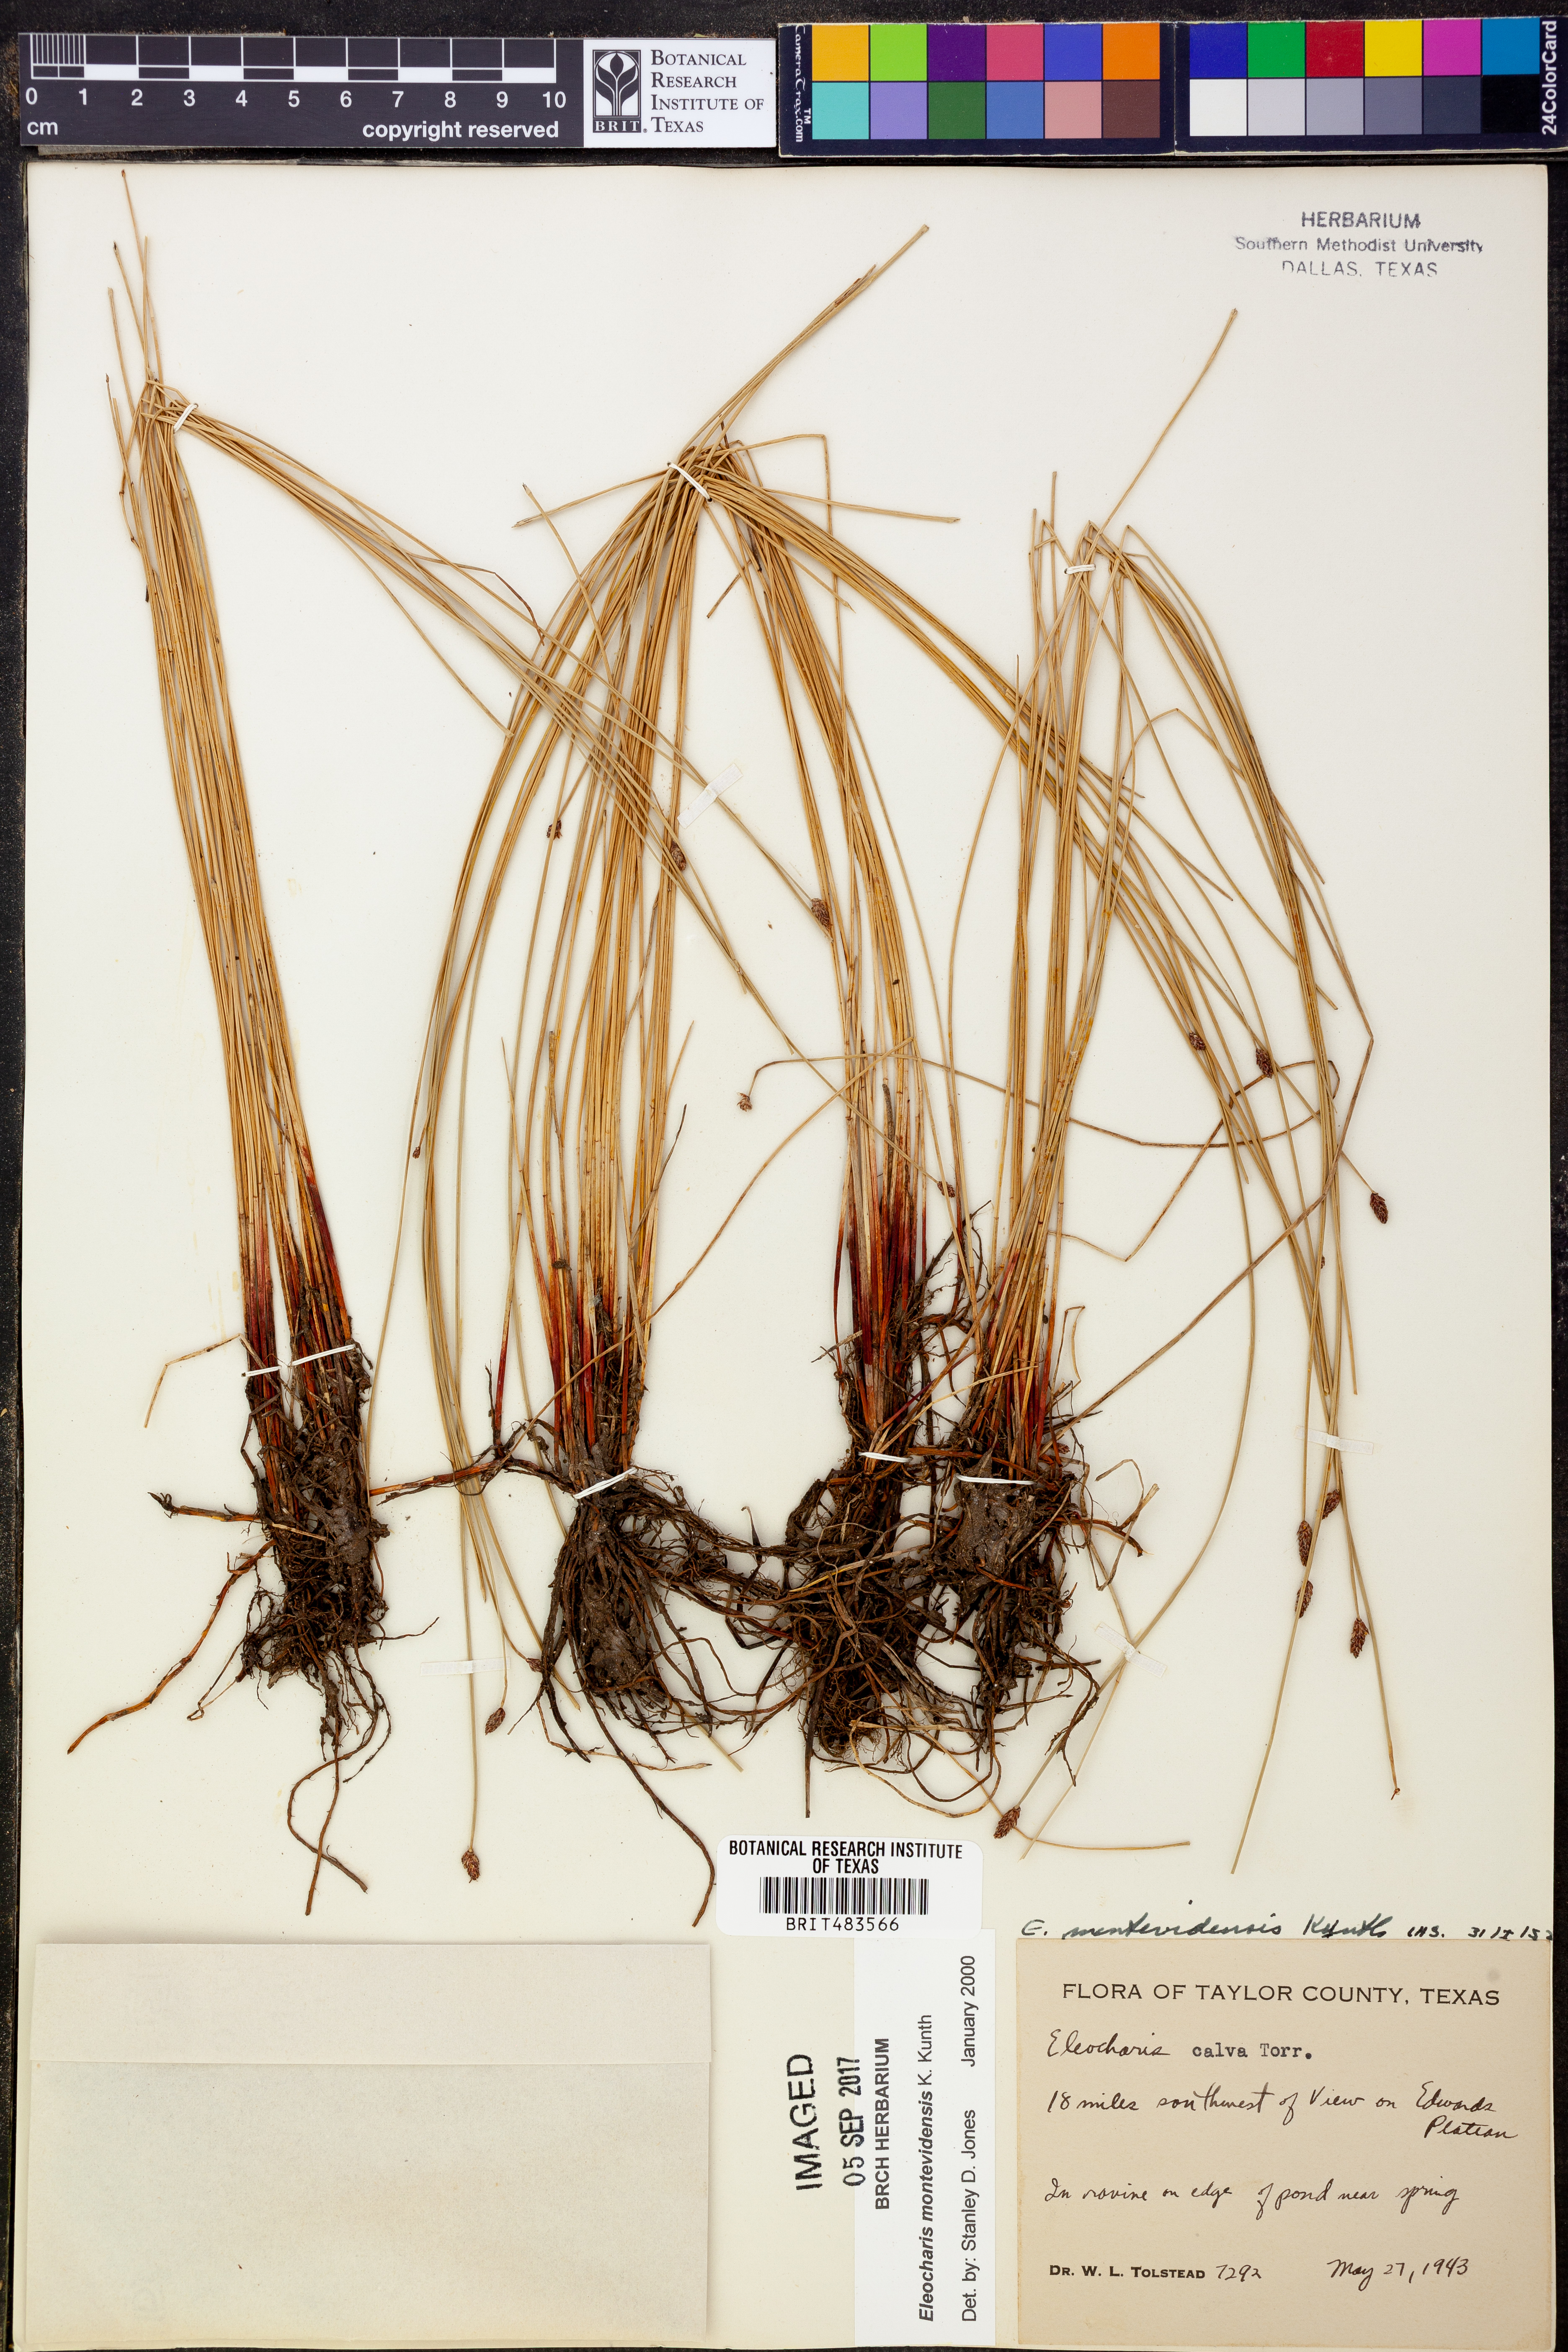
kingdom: Plantae
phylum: Tracheophyta
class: Liliopsida
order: Poales
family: Cyperaceae
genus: Eleocharis
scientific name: Eleocharis montevidensis
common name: Sand spike-rush
